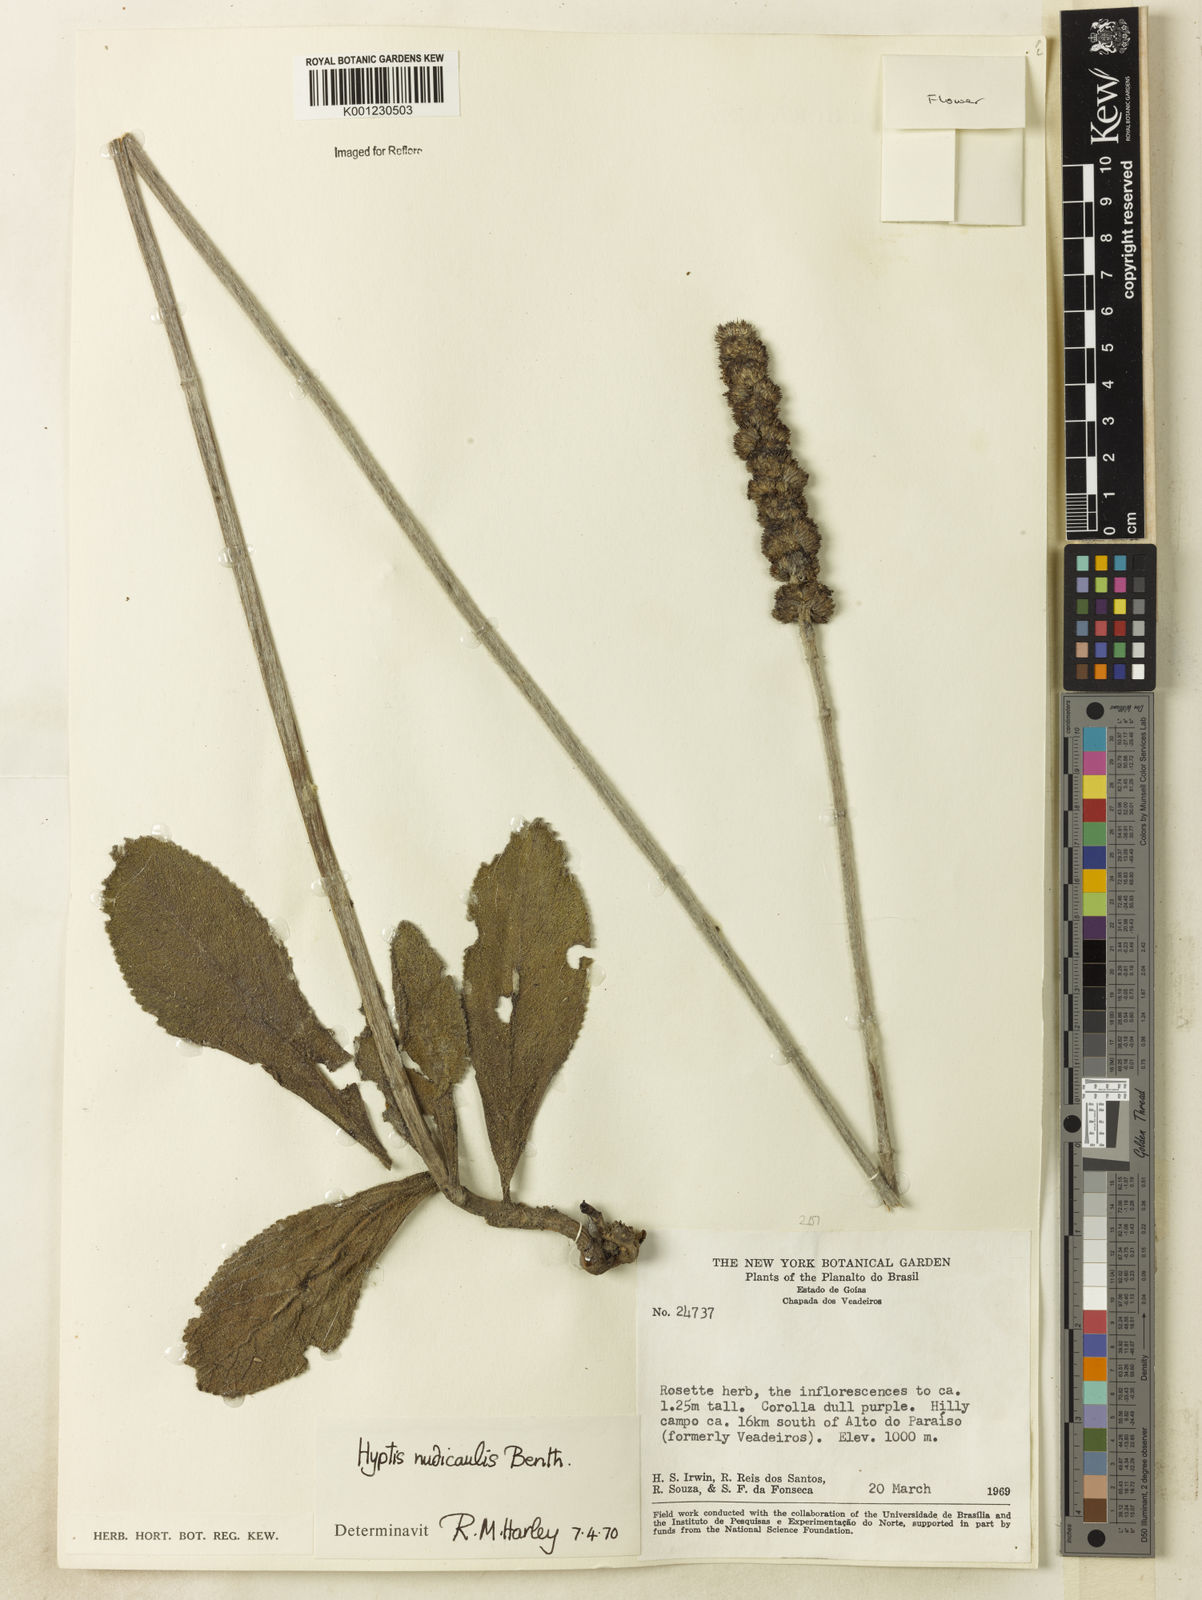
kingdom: Plantae
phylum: Tracheophyta
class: Magnoliopsida
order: Lamiales
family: Lamiaceae
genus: Hyptis
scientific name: Hyptis nudicaulis
